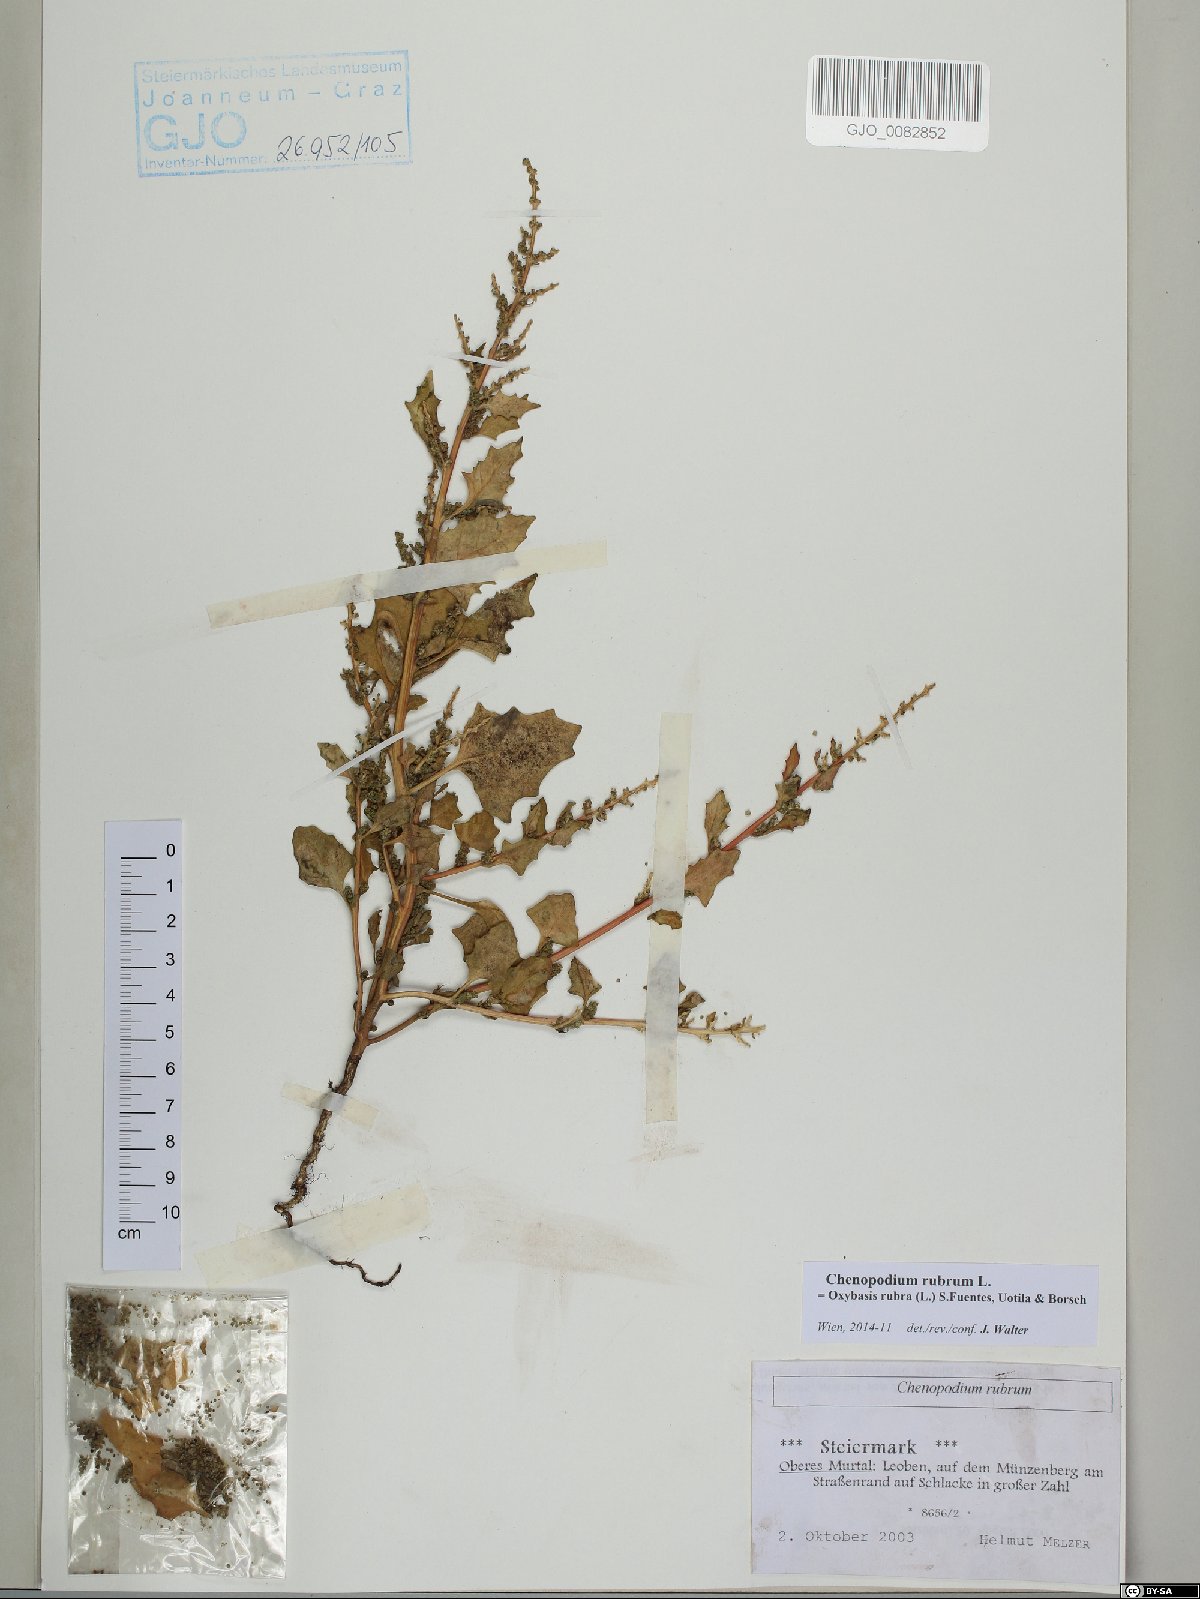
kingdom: Plantae
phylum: Tracheophyta
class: Magnoliopsida
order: Caryophyllales
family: Amaranthaceae
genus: Oxybasis
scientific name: Oxybasis rubra
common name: Red goosefoot
